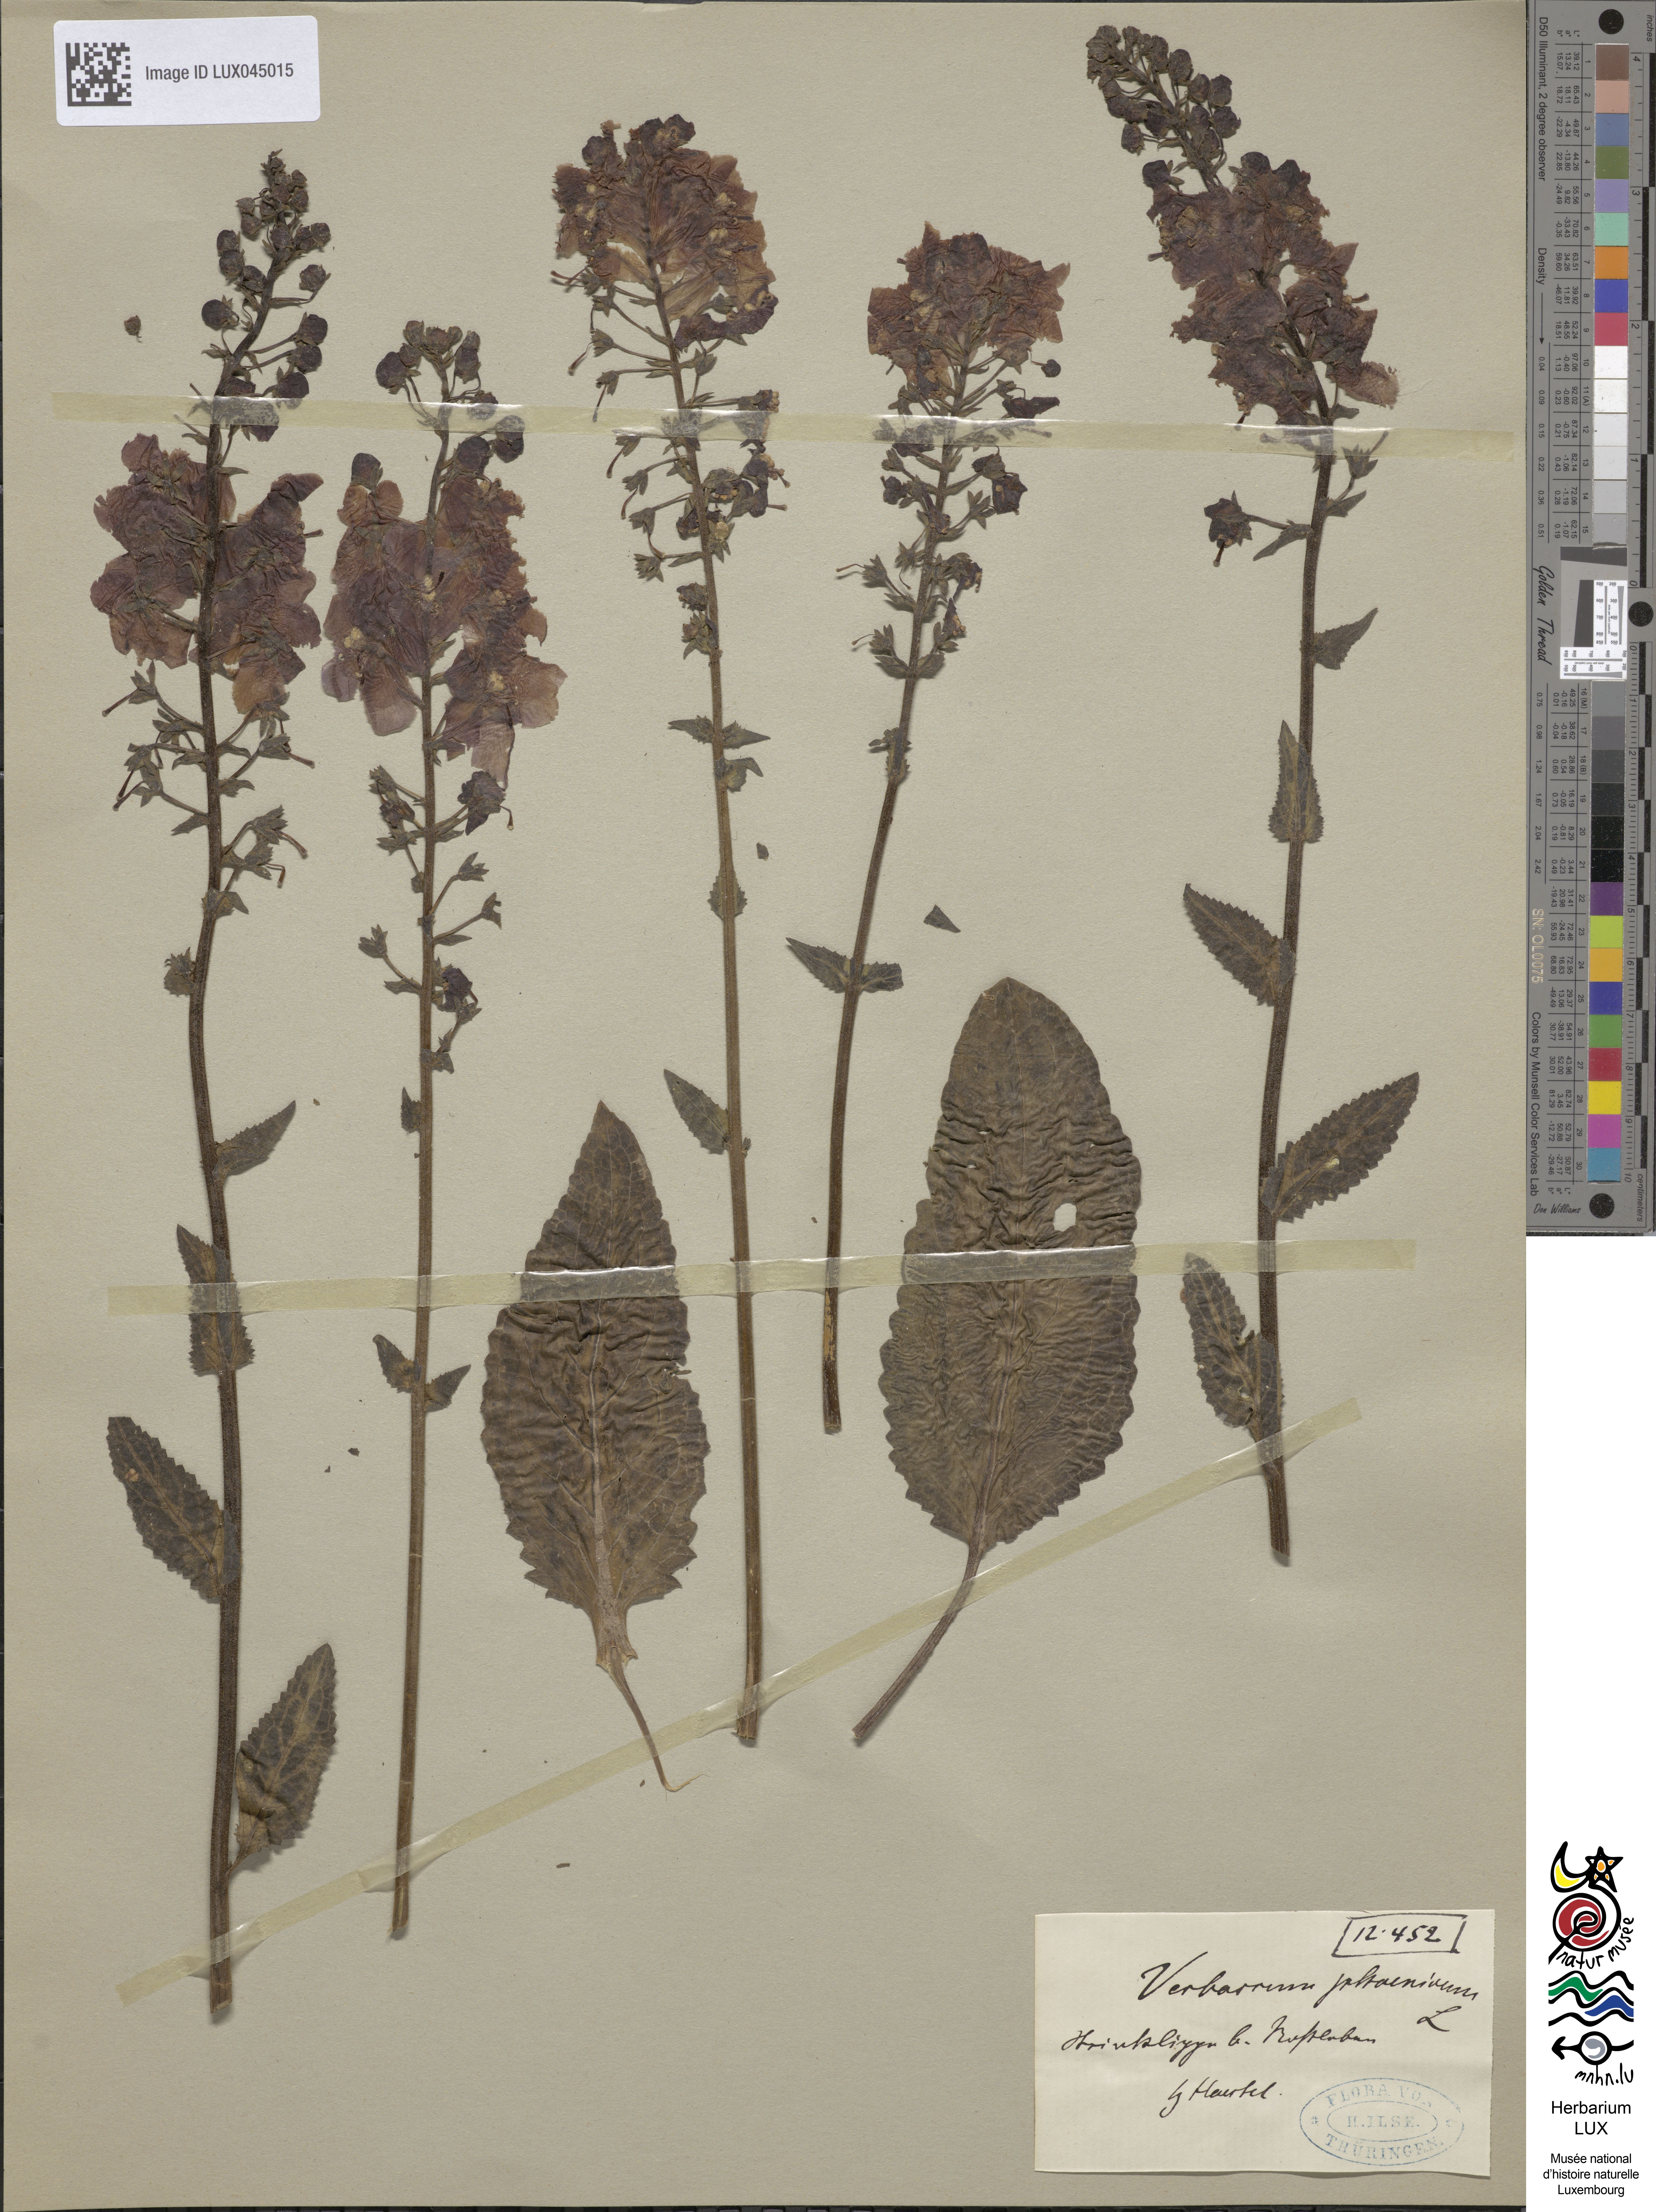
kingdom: Plantae
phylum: Tracheophyta
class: Magnoliopsida
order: Lamiales
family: Scrophulariaceae
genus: Verbascum
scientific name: Verbascum phoeniceum
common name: Purple mullein
